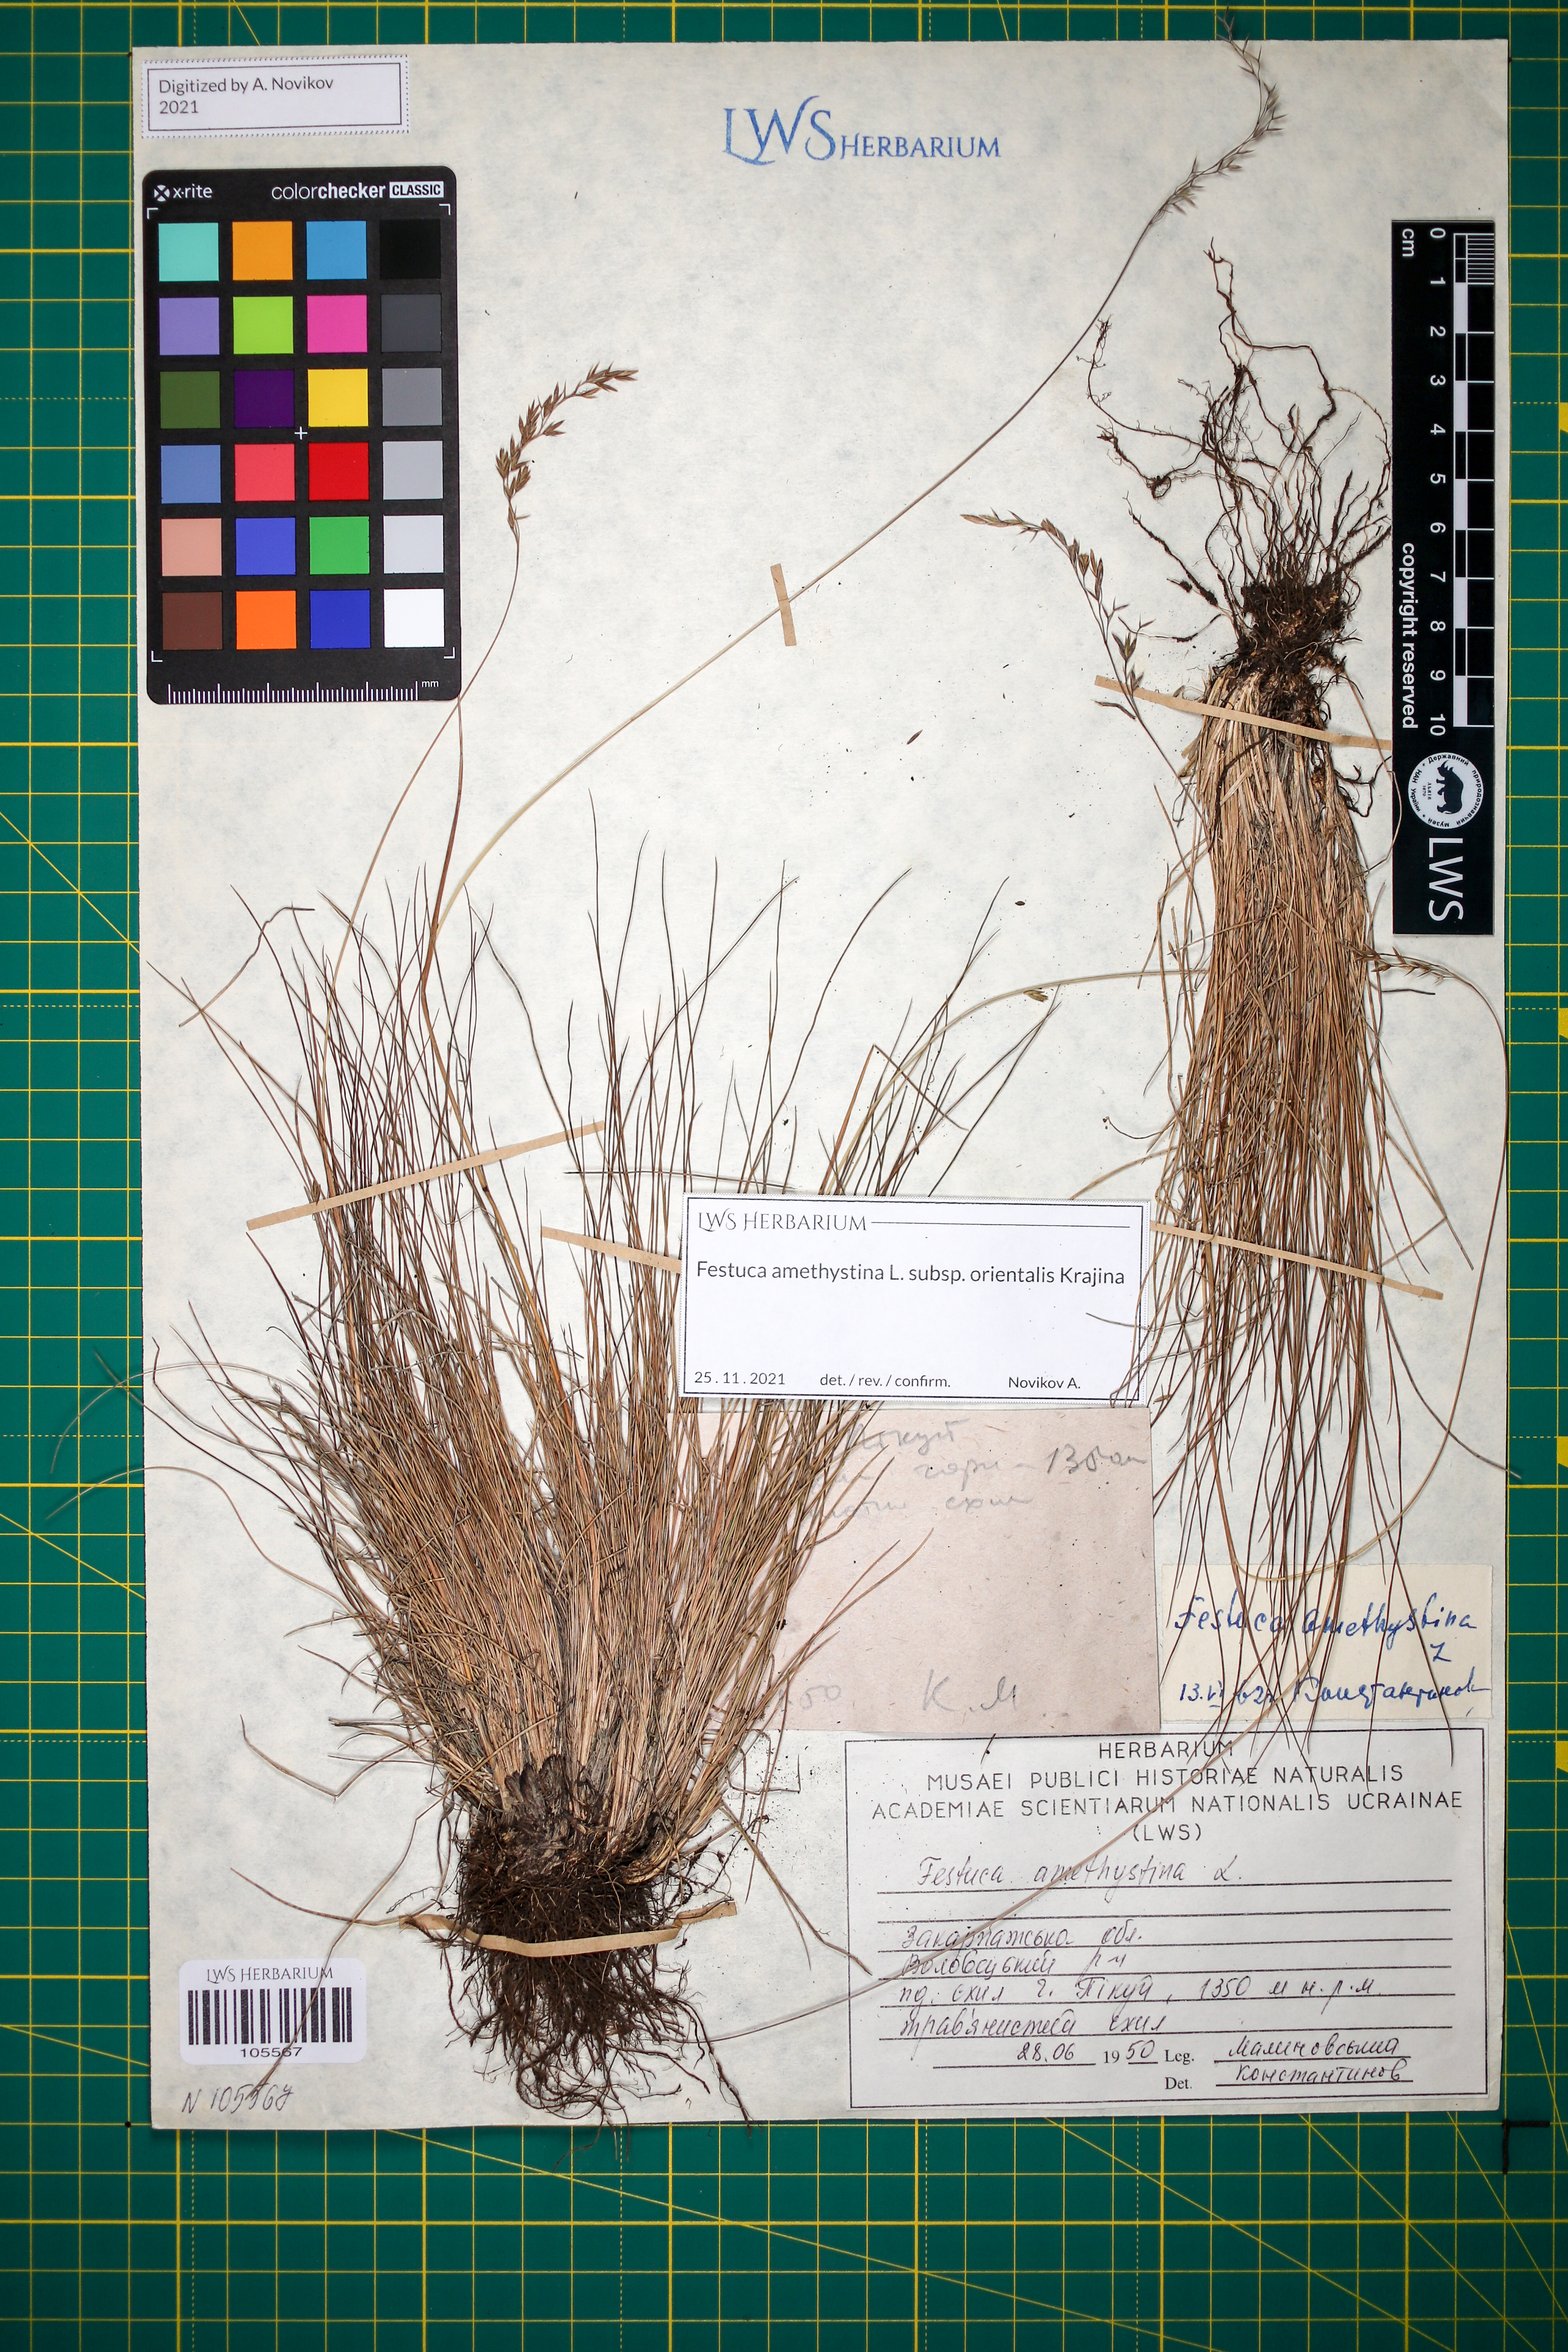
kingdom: Plantae
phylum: Tracheophyta
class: Liliopsida
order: Poales
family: Poaceae
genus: Festuca
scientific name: Festuca amethystina
